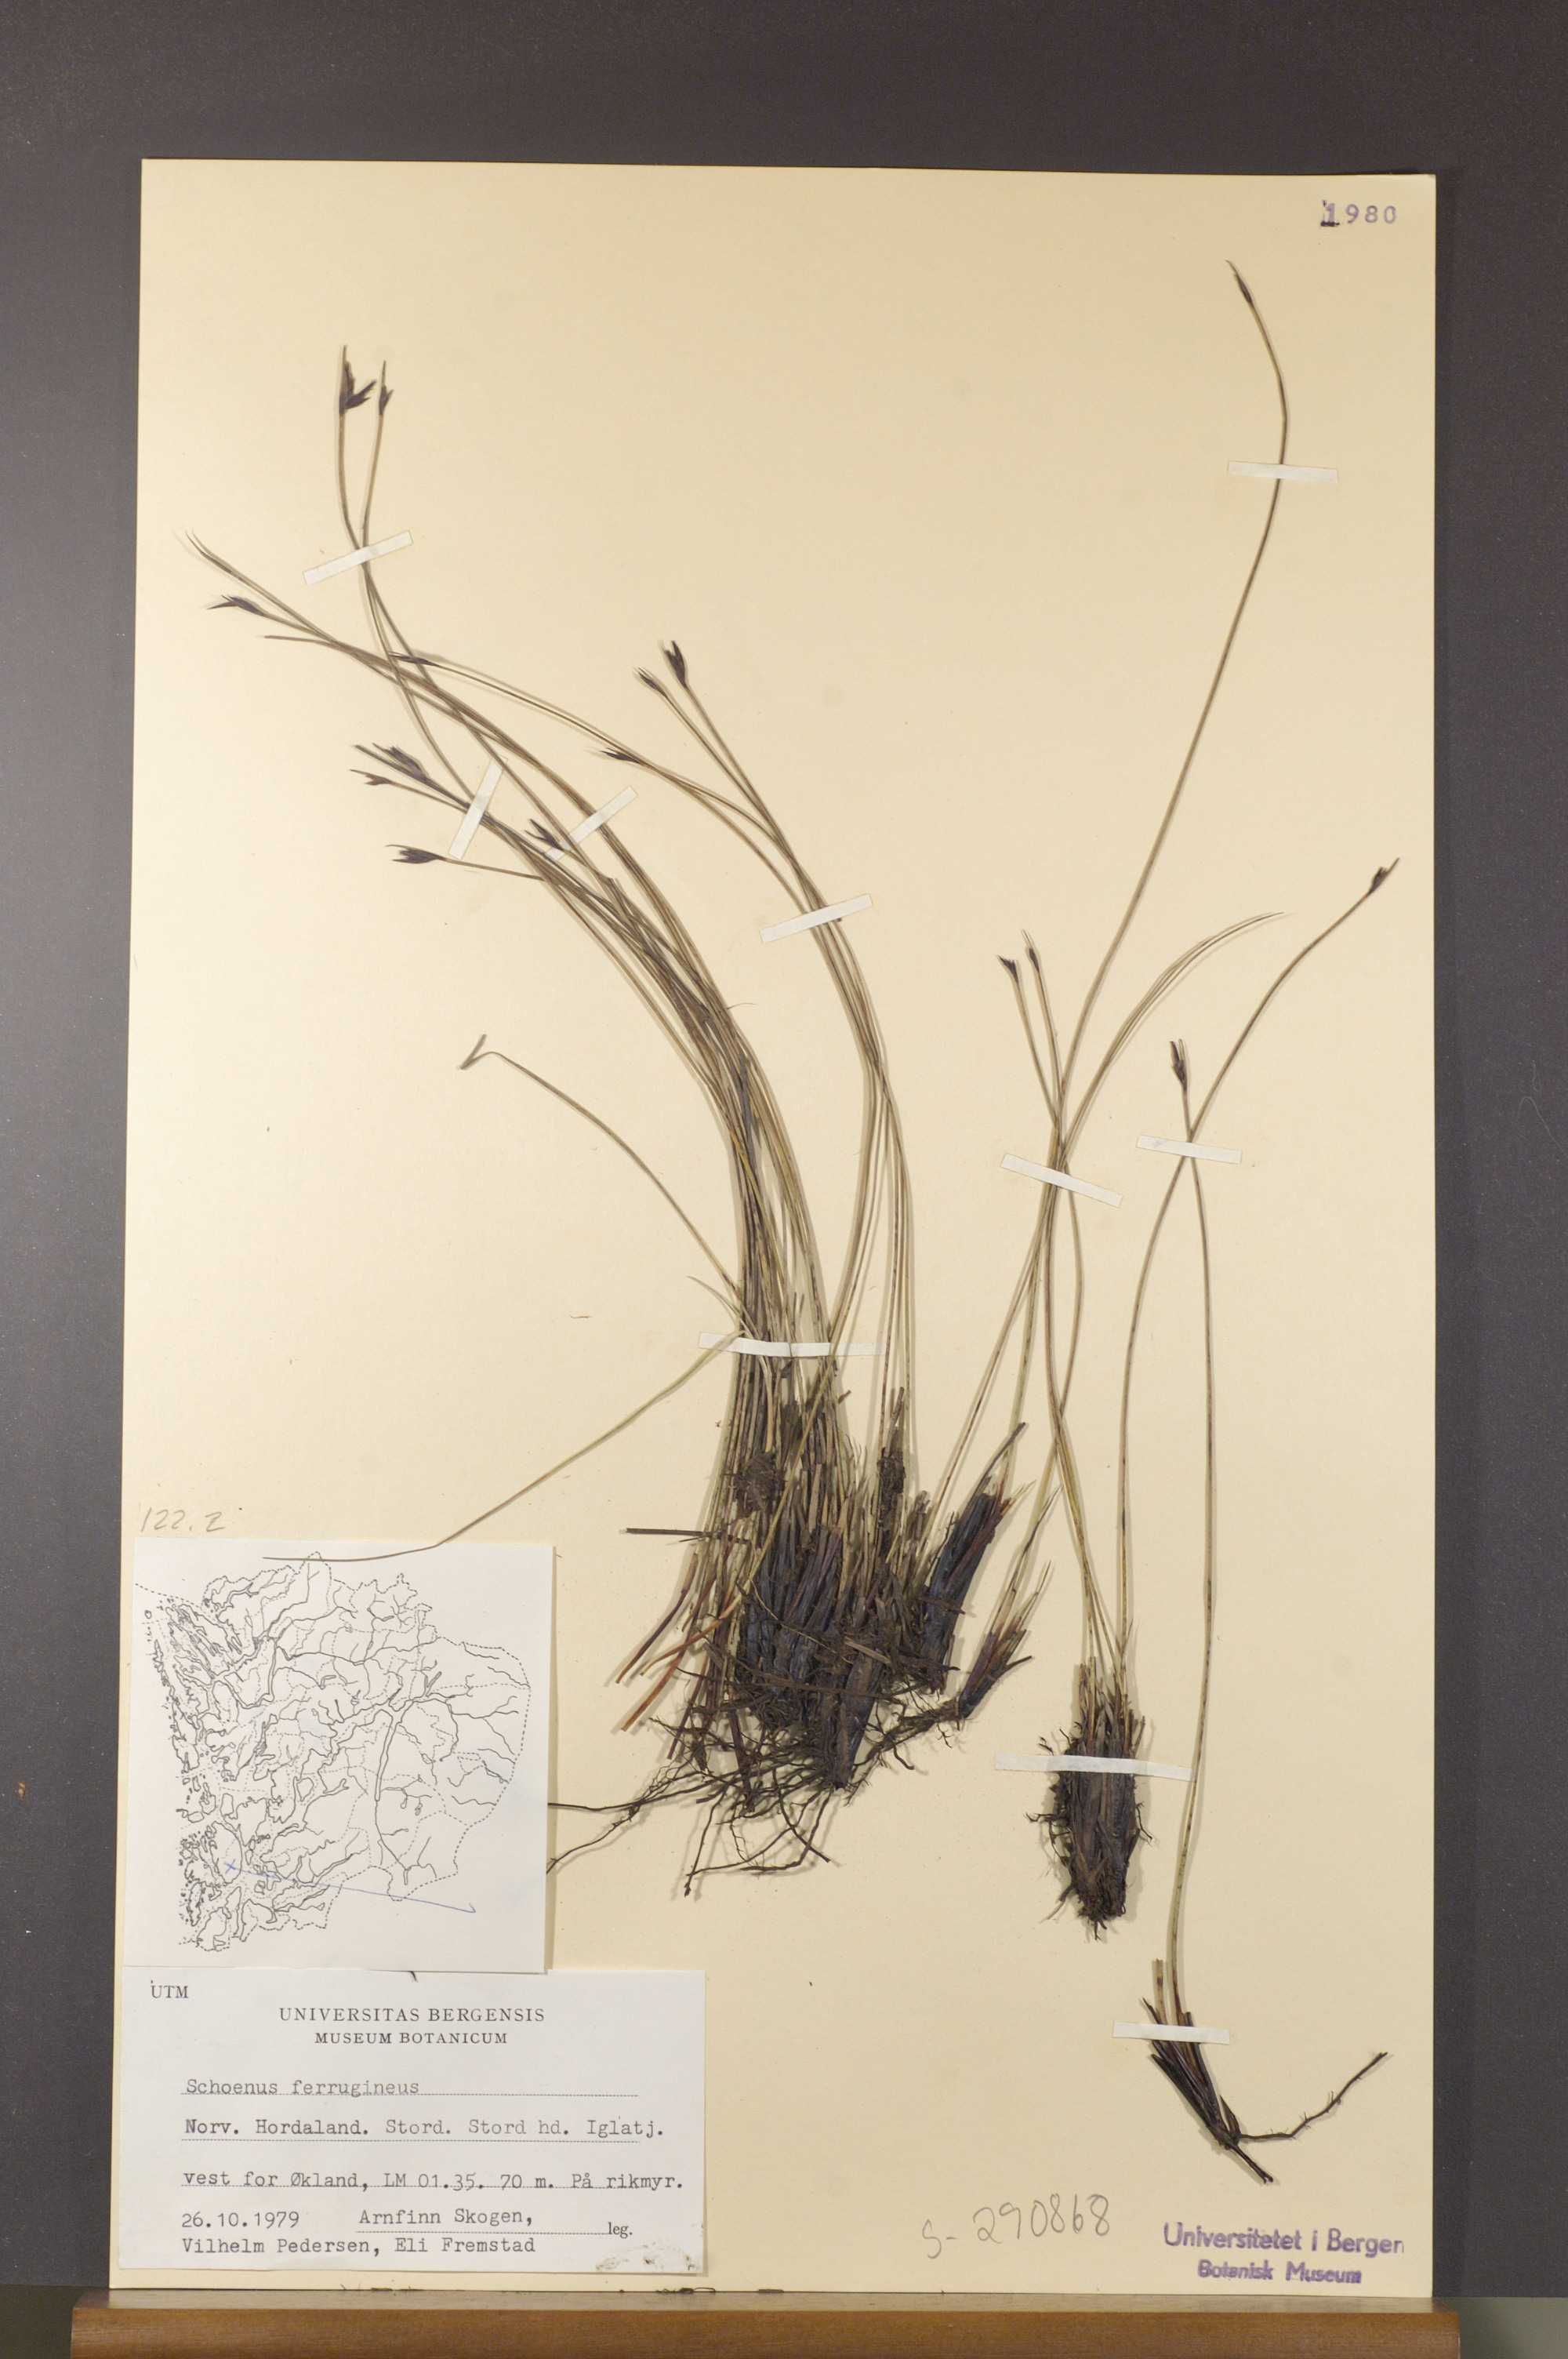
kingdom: Plantae
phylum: Tracheophyta
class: Liliopsida
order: Poales
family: Cyperaceae
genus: Schoenus
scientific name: Schoenus ferrugineus
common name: Brown bog-rush
